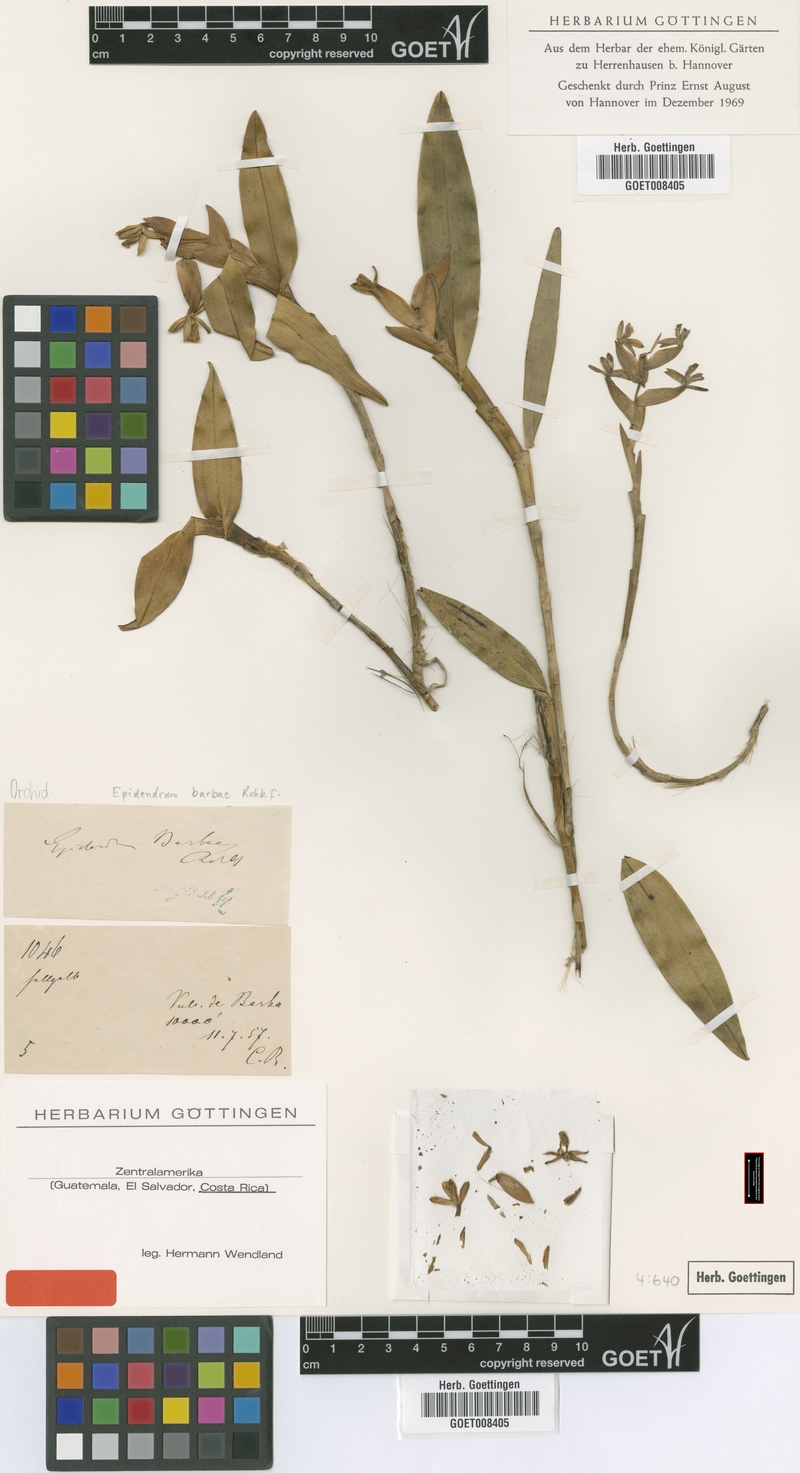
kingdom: Plantae
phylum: Tracheophyta
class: Liliopsida
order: Asparagales
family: Orchidaceae
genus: Epidendrum
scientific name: Epidendrum barbae
